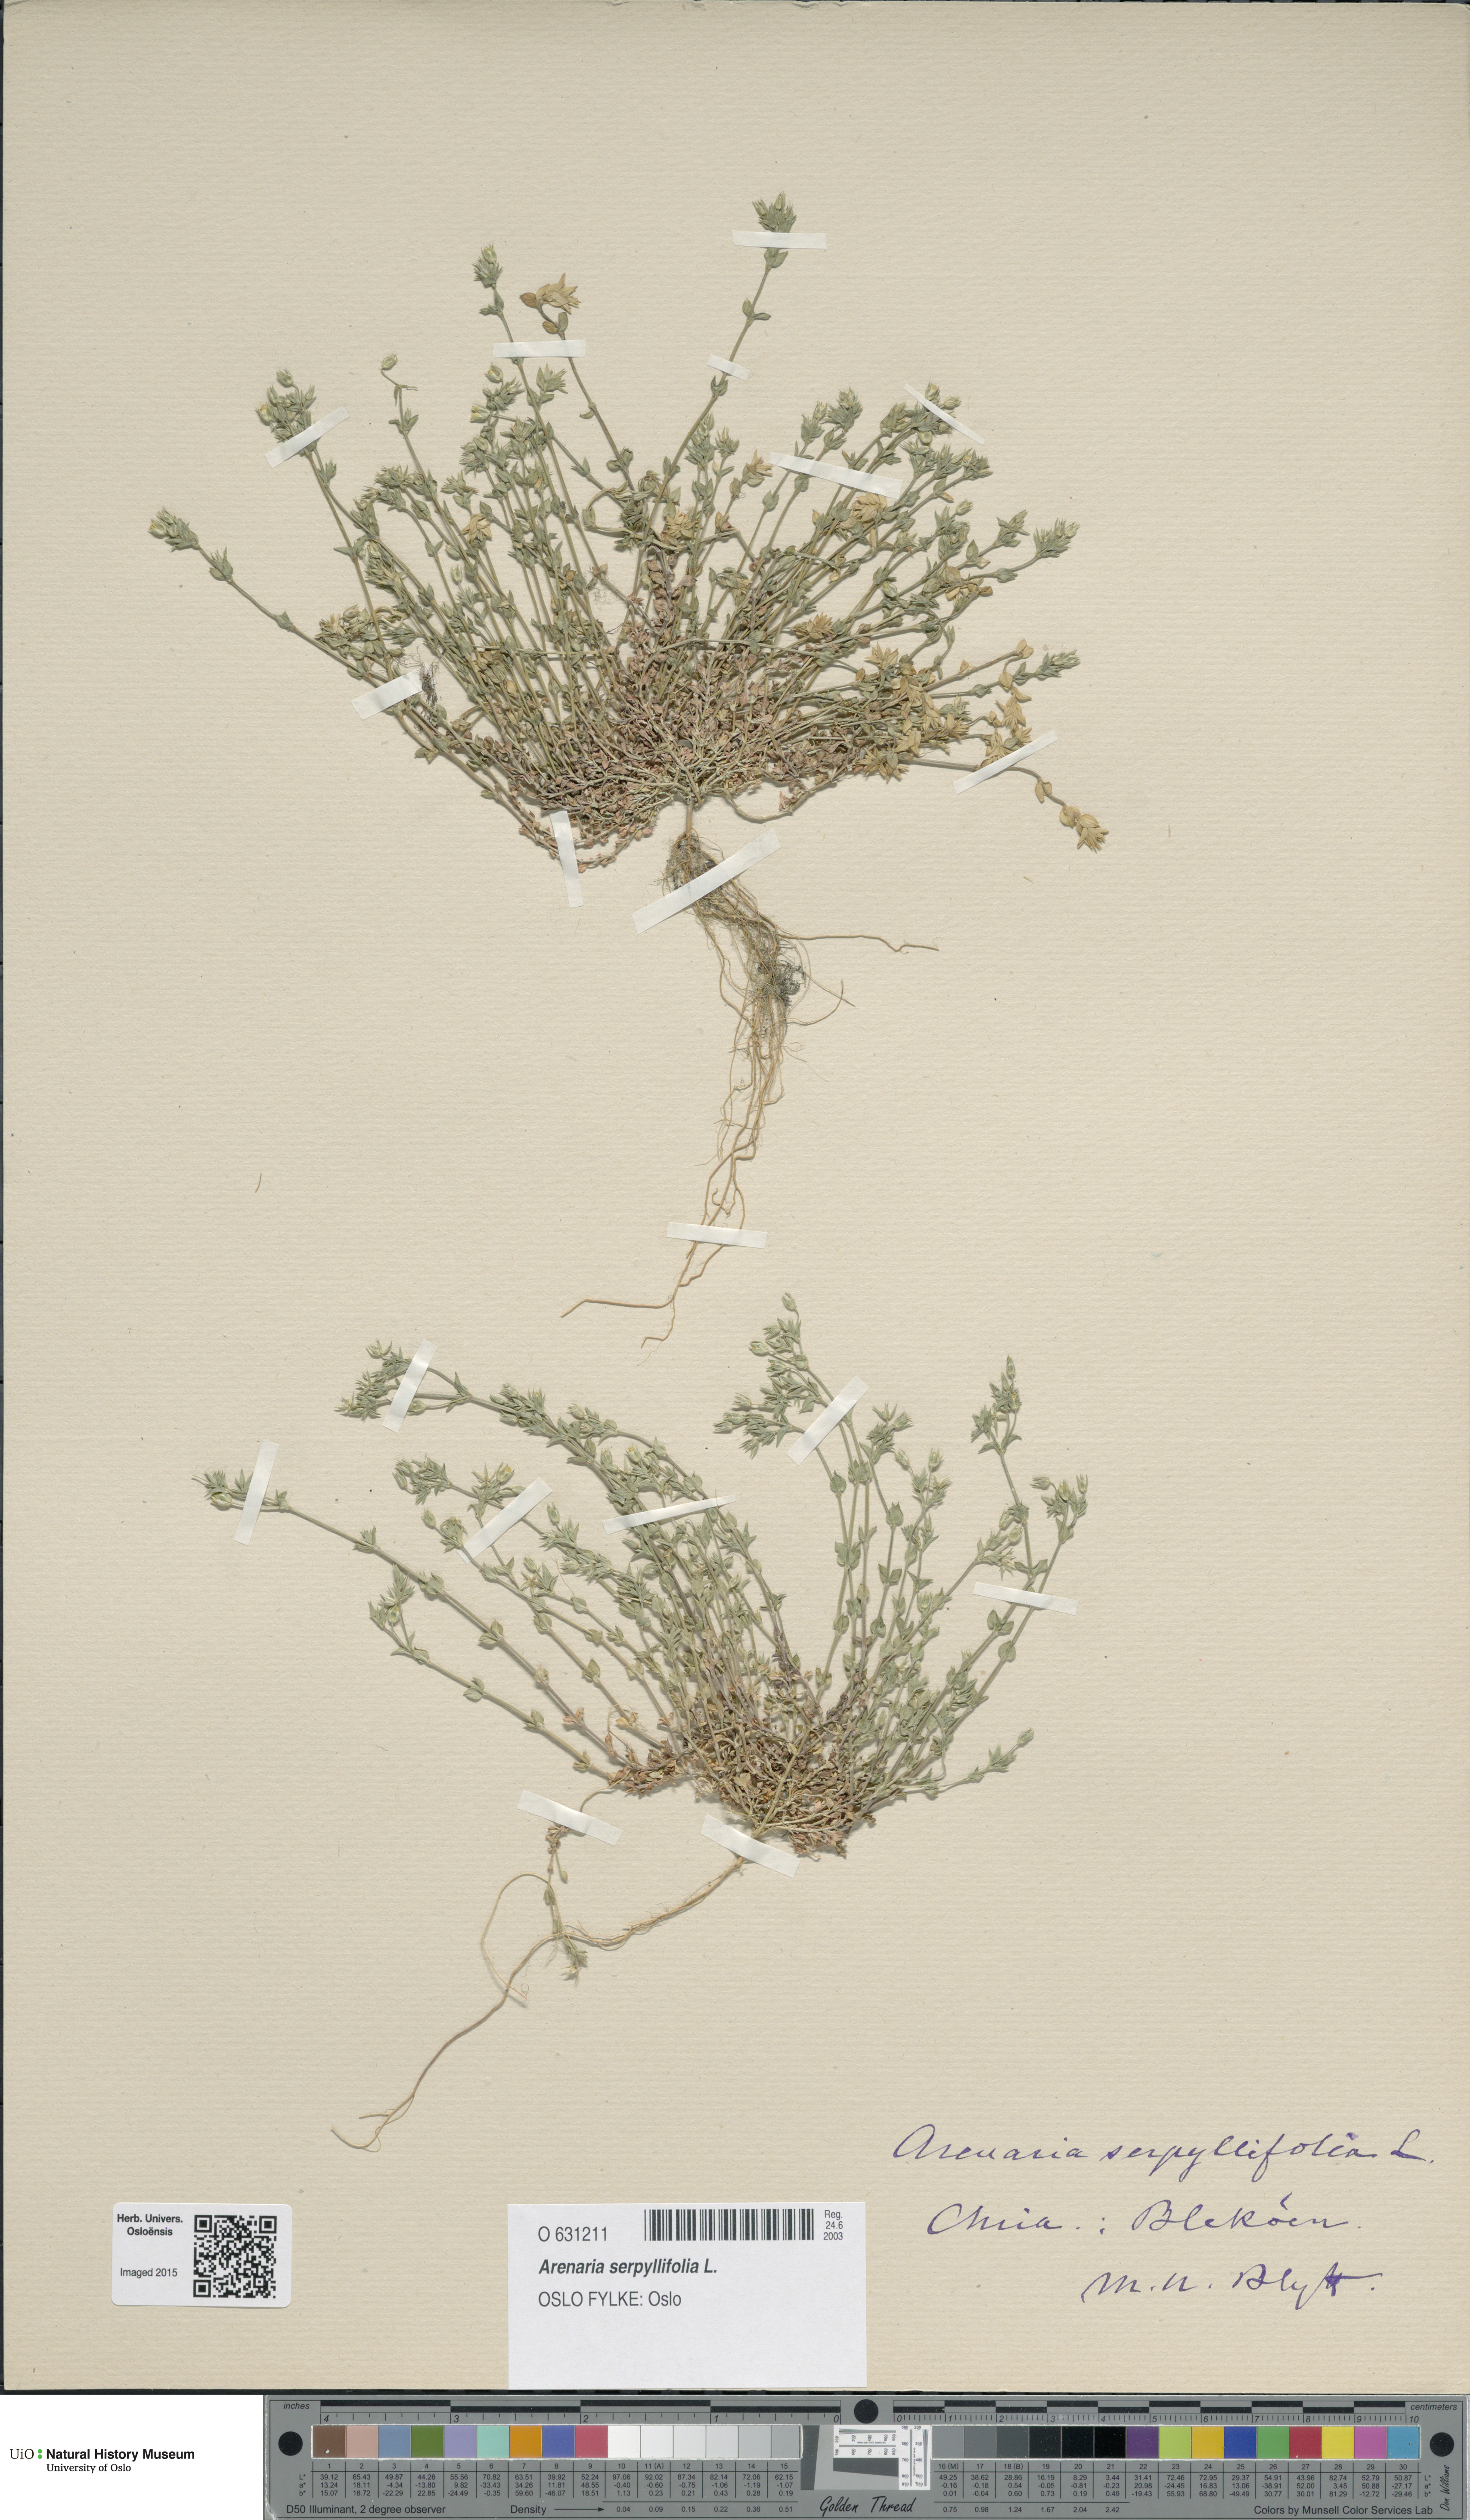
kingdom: Plantae
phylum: Tracheophyta
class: Magnoliopsida
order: Caryophyllales
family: Caryophyllaceae
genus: Arenaria
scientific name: Arenaria serpyllifolia
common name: Thyme-leaved sandwort
